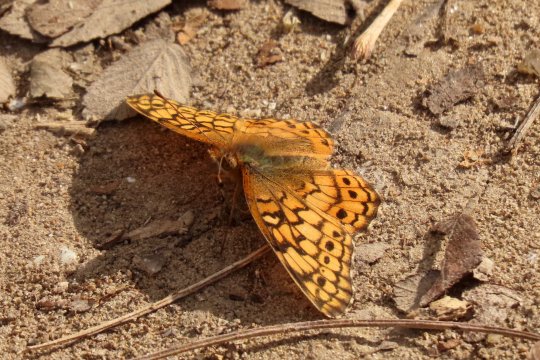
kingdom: Animalia
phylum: Arthropoda
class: Insecta
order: Lepidoptera
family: Nymphalidae
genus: Euptoieta
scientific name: Euptoieta claudia
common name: Variegated Fritillary
